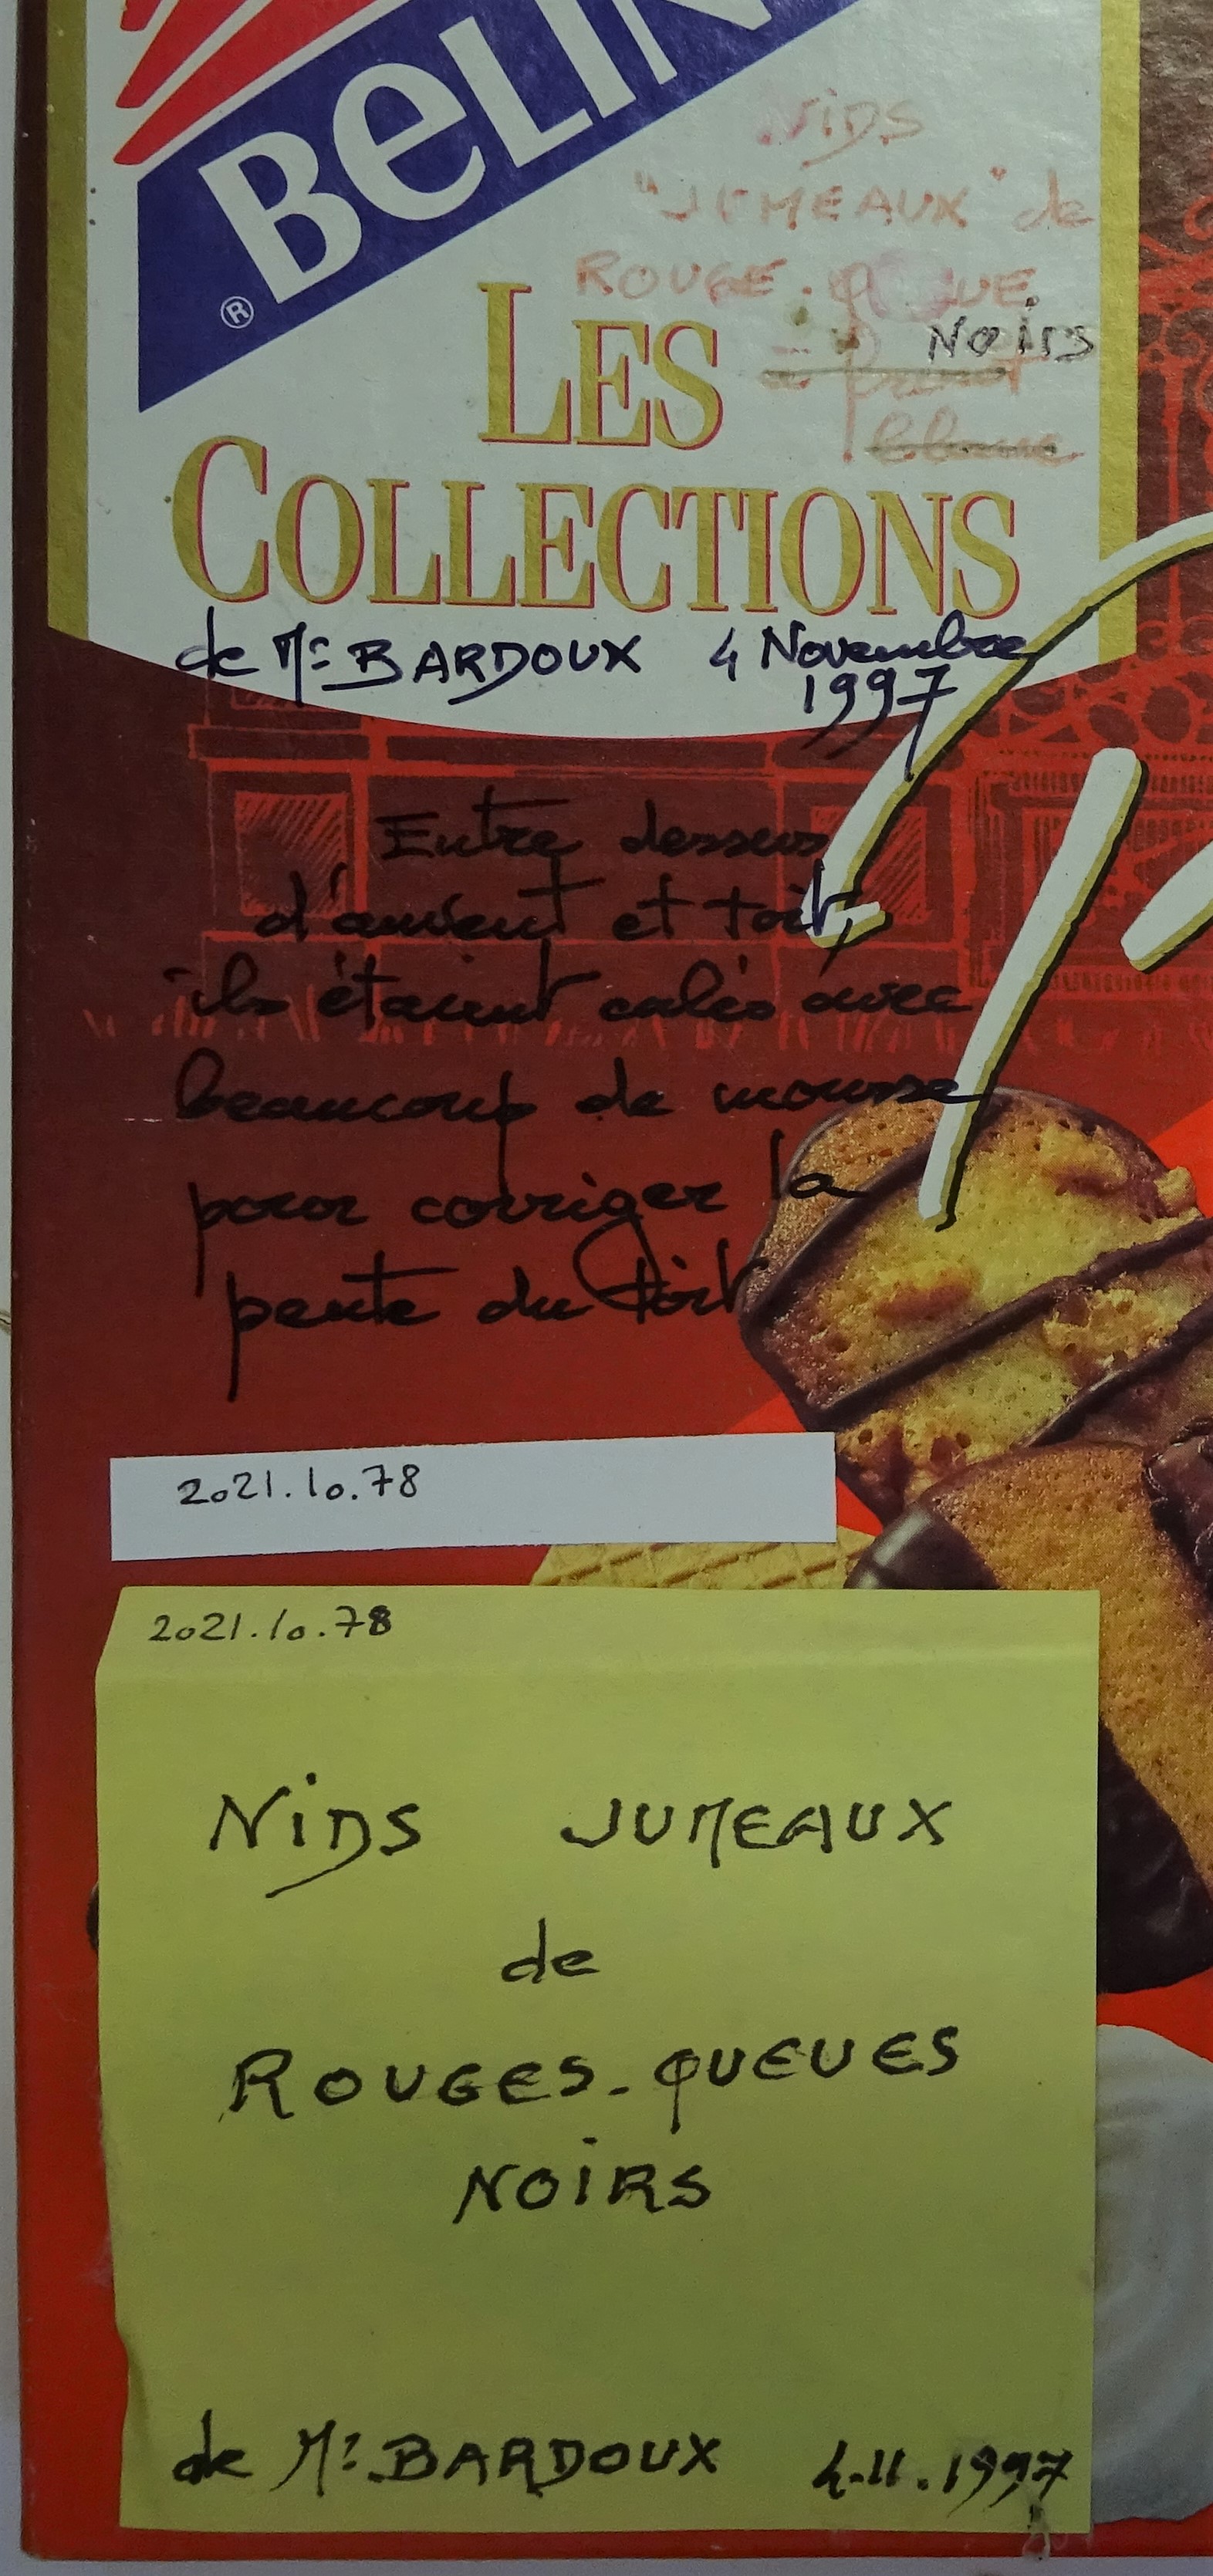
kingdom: Animalia
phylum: Chordata
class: Aves
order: Passeriformes
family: Muscicapidae
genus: Phoenicurus
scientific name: Phoenicurus ochruros
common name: Black redstart
